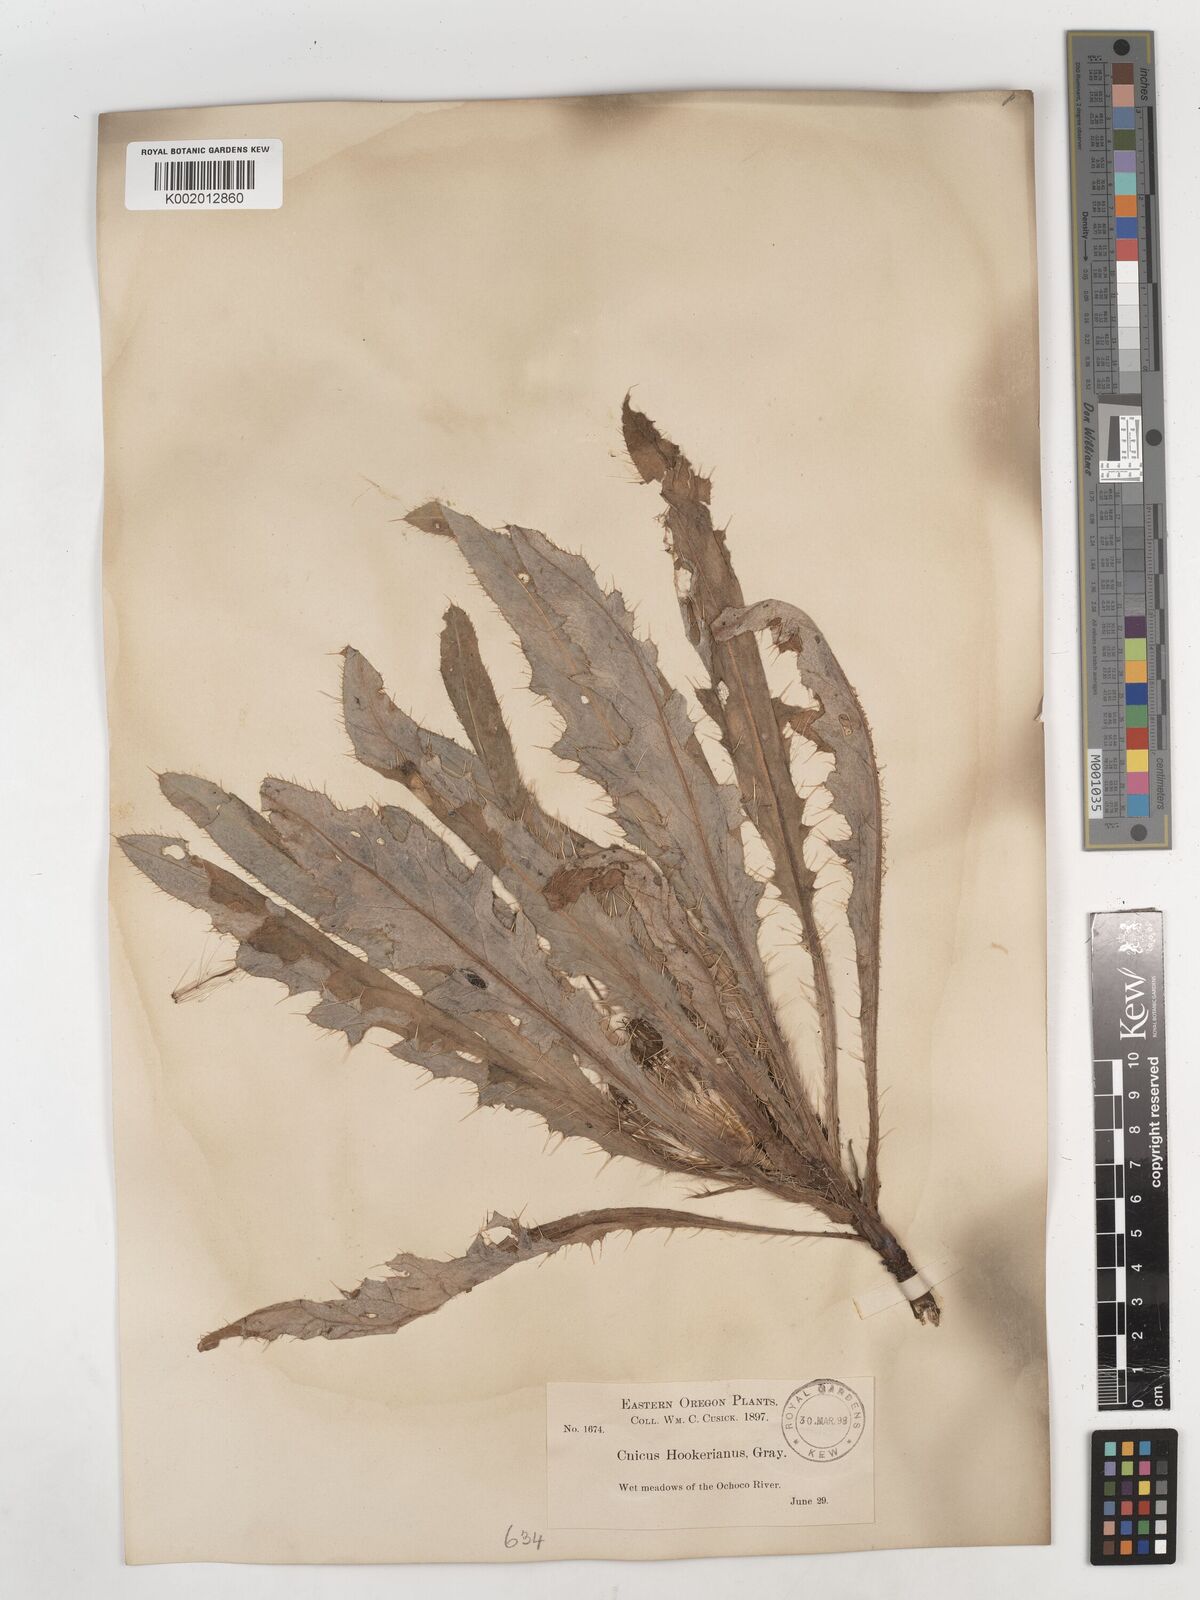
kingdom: Plantae
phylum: Tracheophyta
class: Magnoliopsida
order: Asterales
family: Asteraceae
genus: Cirsium
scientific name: Cirsium hookerianum
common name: Hooker's thistle
